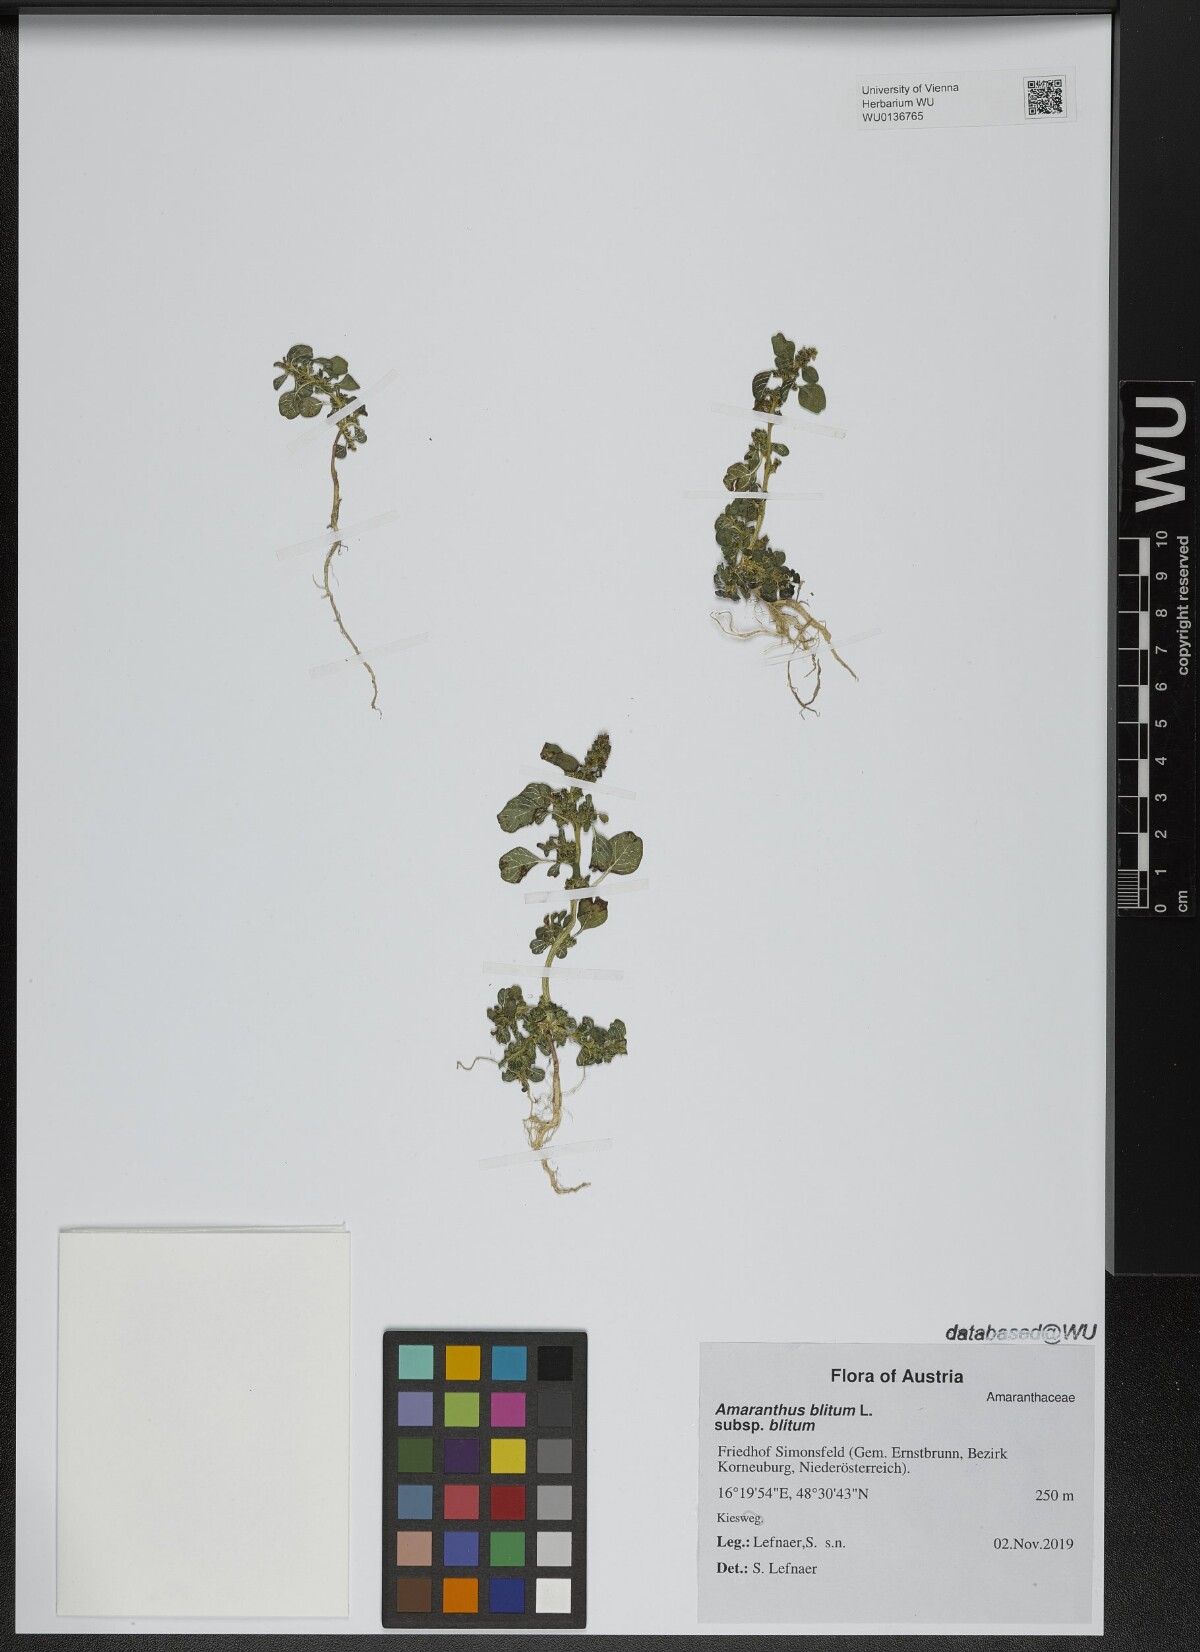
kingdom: Plantae
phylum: Tracheophyta
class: Magnoliopsida
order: Caryophyllales
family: Amaranthaceae
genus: Amaranthus
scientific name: Amaranthus blitum
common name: Purple amaranth
